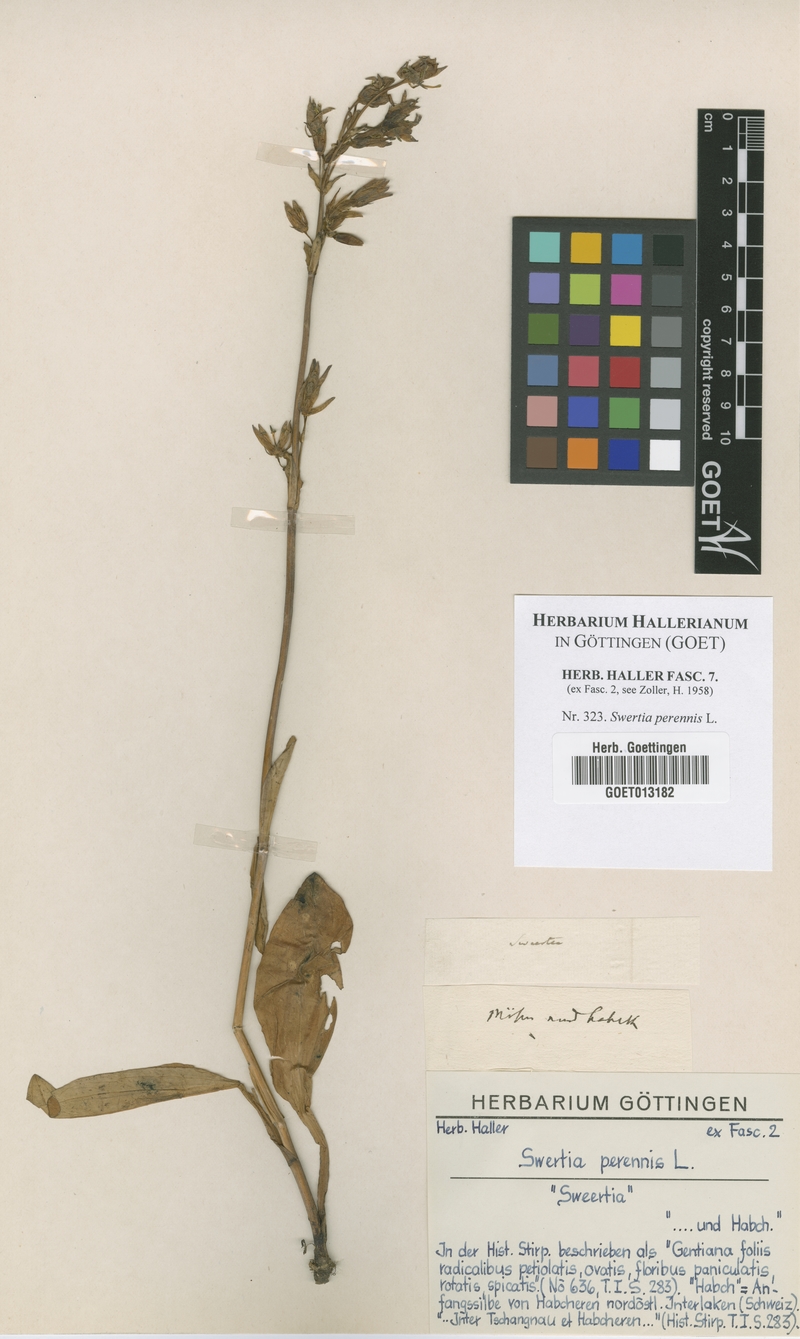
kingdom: Plantae
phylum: Tracheophyta
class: Magnoliopsida
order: Gentianales
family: Gentianaceae
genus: Swertia
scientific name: Swertia perennis
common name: Alpine bog swertia
